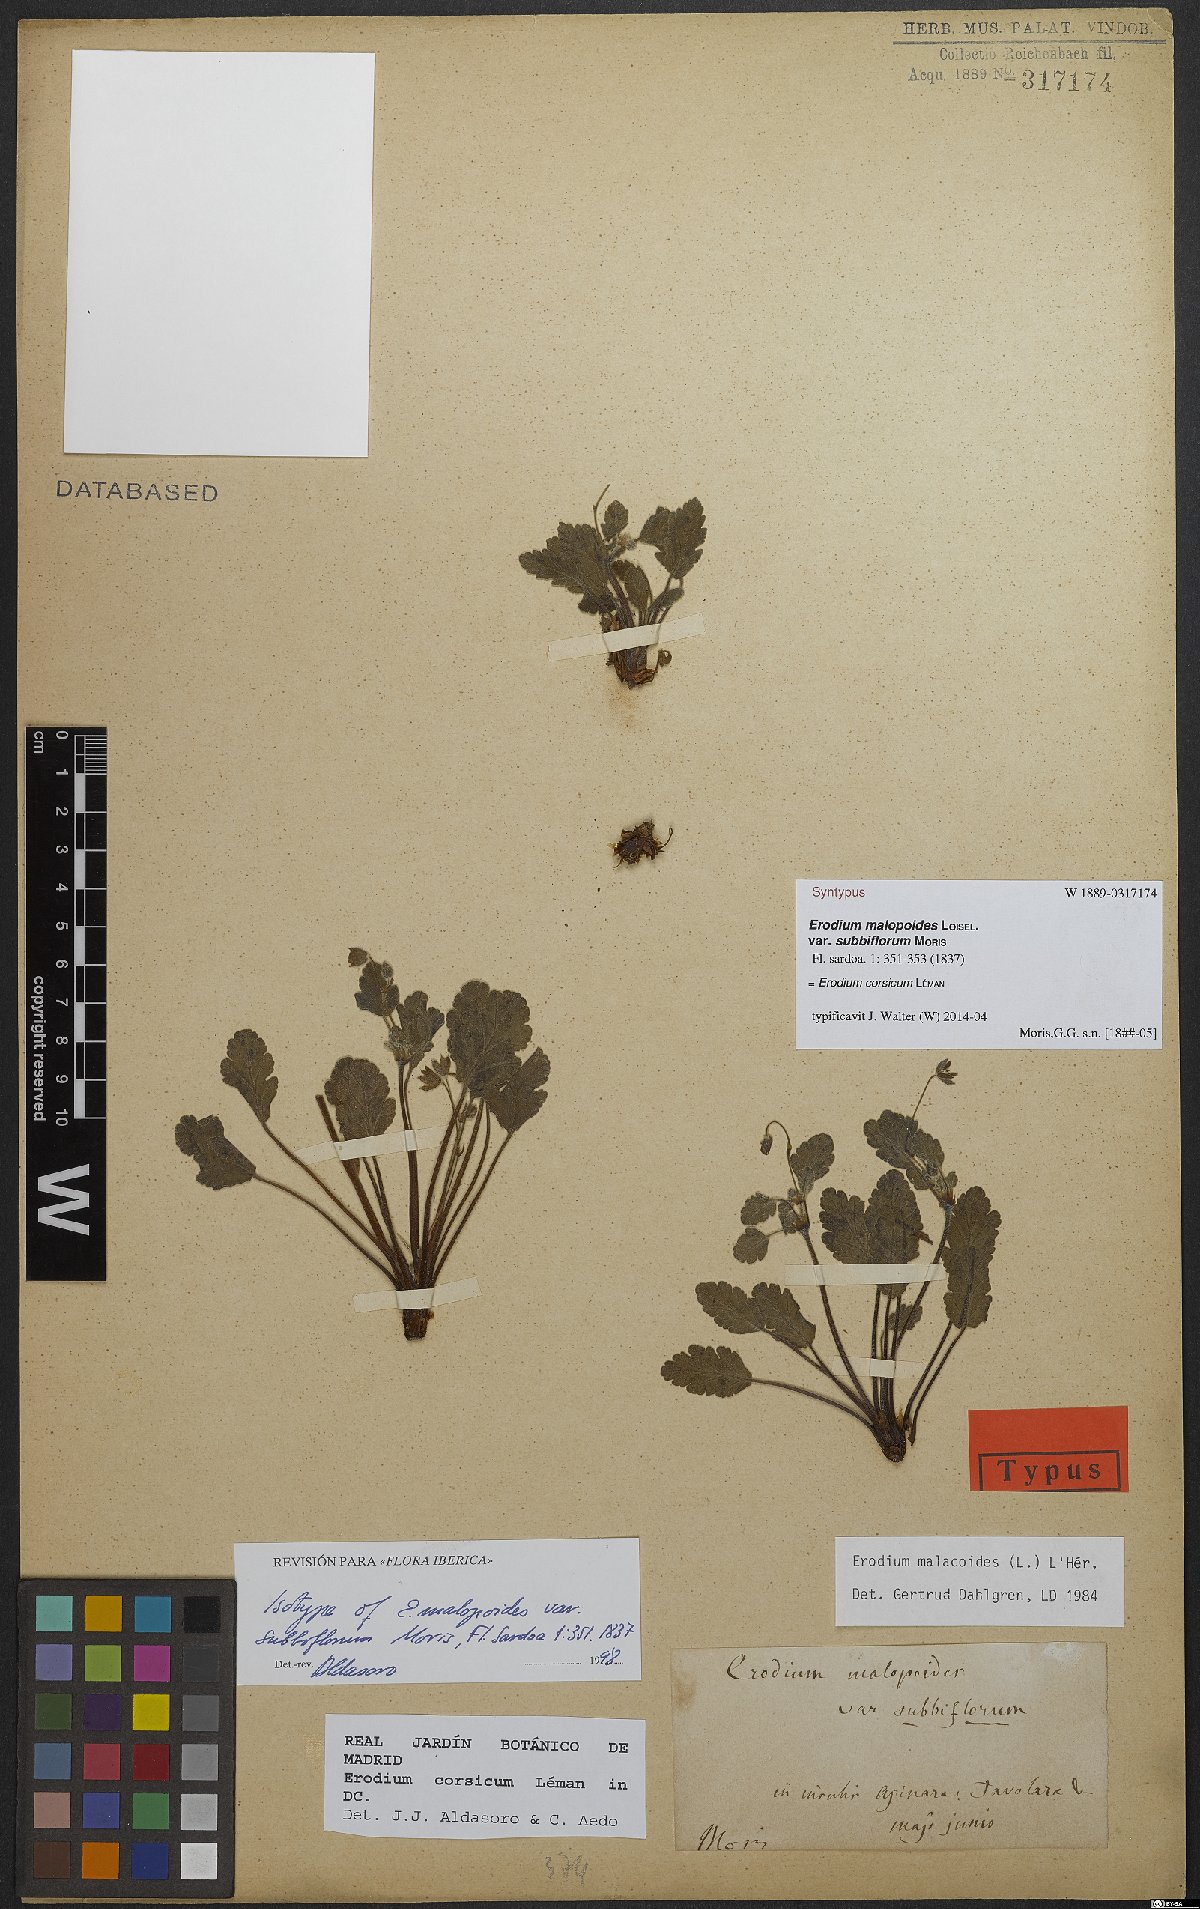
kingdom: Plantae
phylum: Tracheophyta
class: Magnoliopsida
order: Geraniales
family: Geraniaceae
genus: Erodium
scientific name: Erodium corsicum
